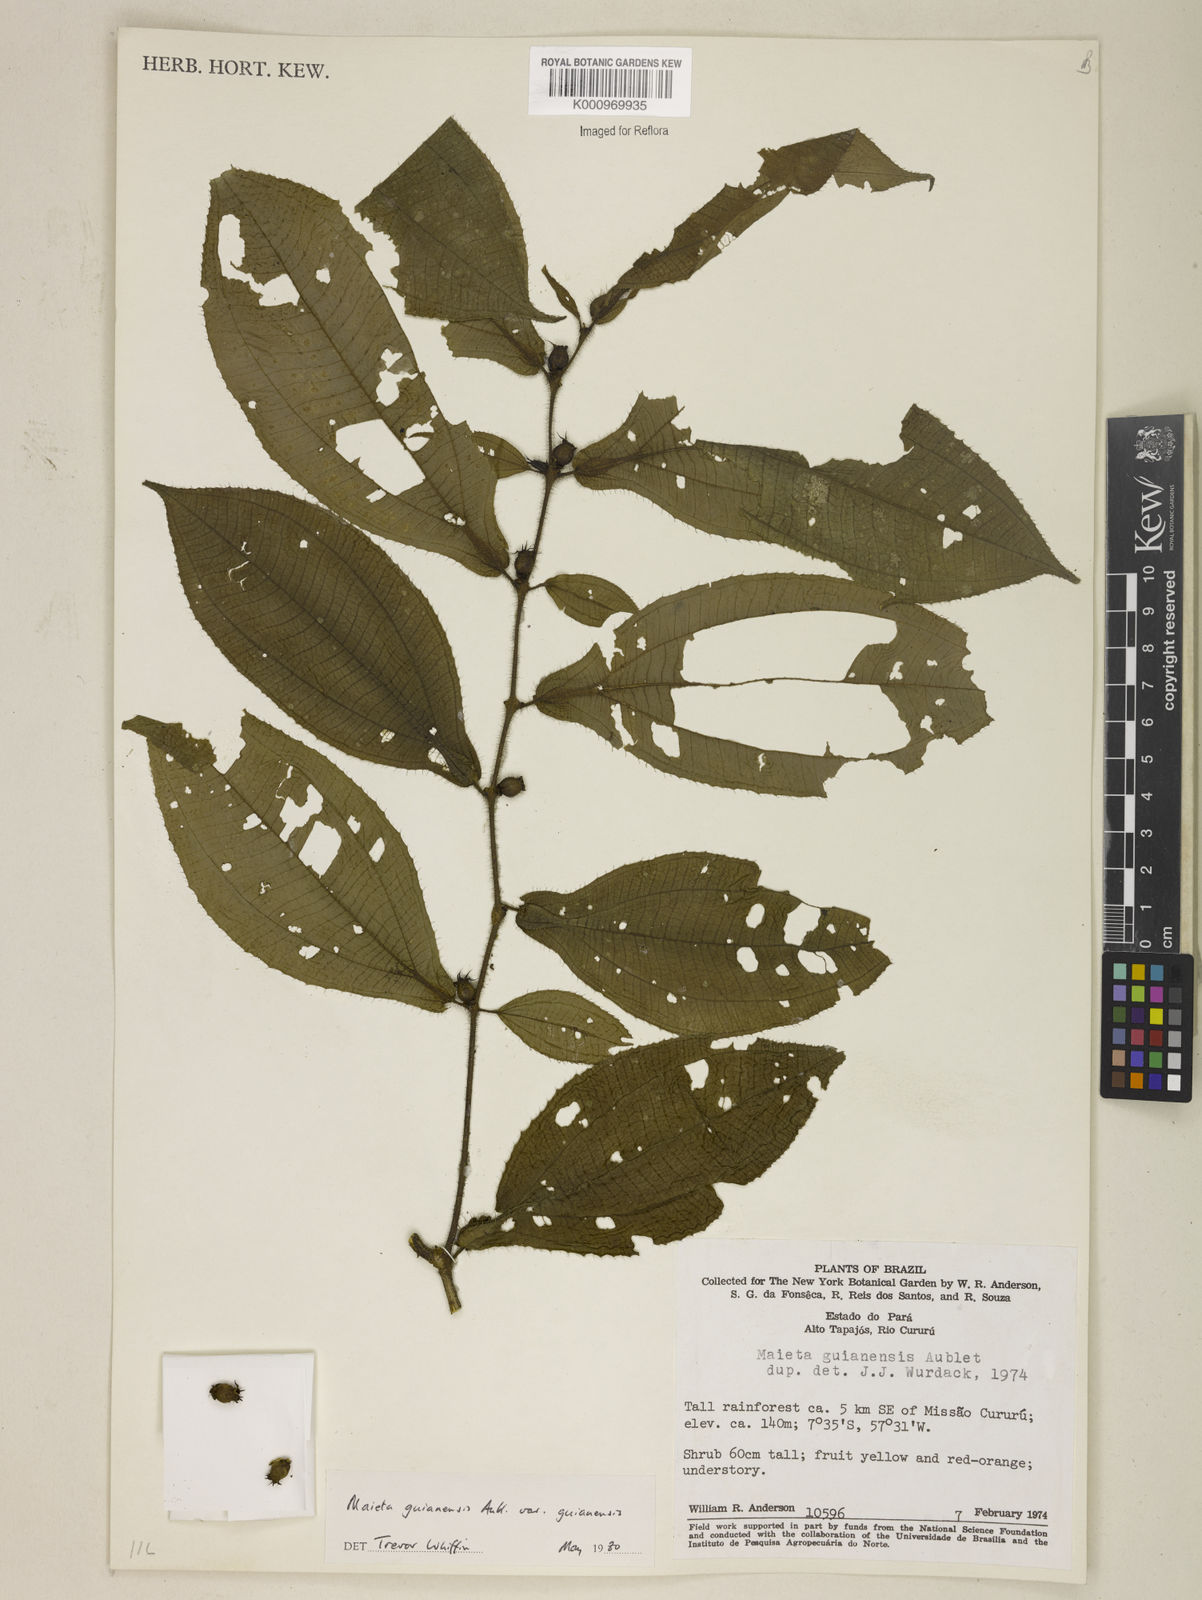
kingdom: Plantae
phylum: Tracheophyta
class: Magnoliopsida
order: Myrtales
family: Melastomataceae
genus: Miconia
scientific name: Miconia mayeta
